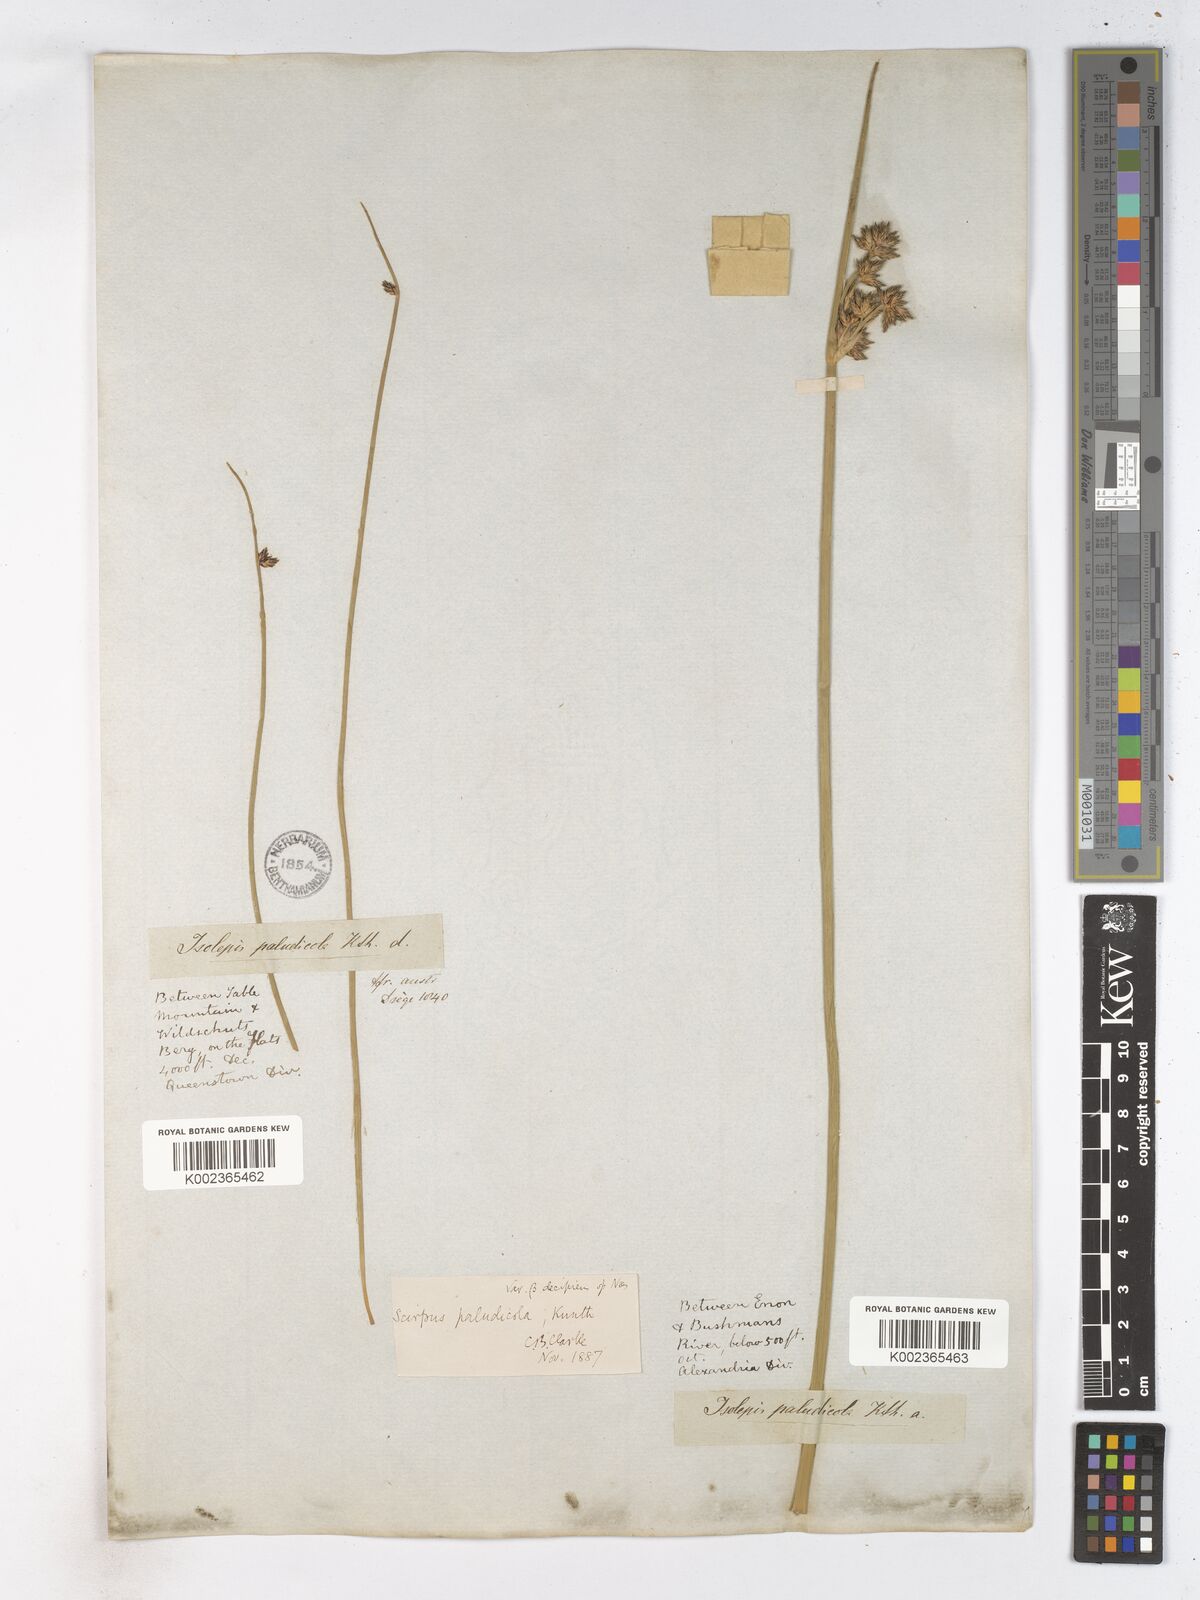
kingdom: Plantae
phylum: Tracheophyta
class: Liliopsida
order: Poales
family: Cyperaceae
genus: Schoenoplectiella
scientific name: Schoenoplectiella paludicola
